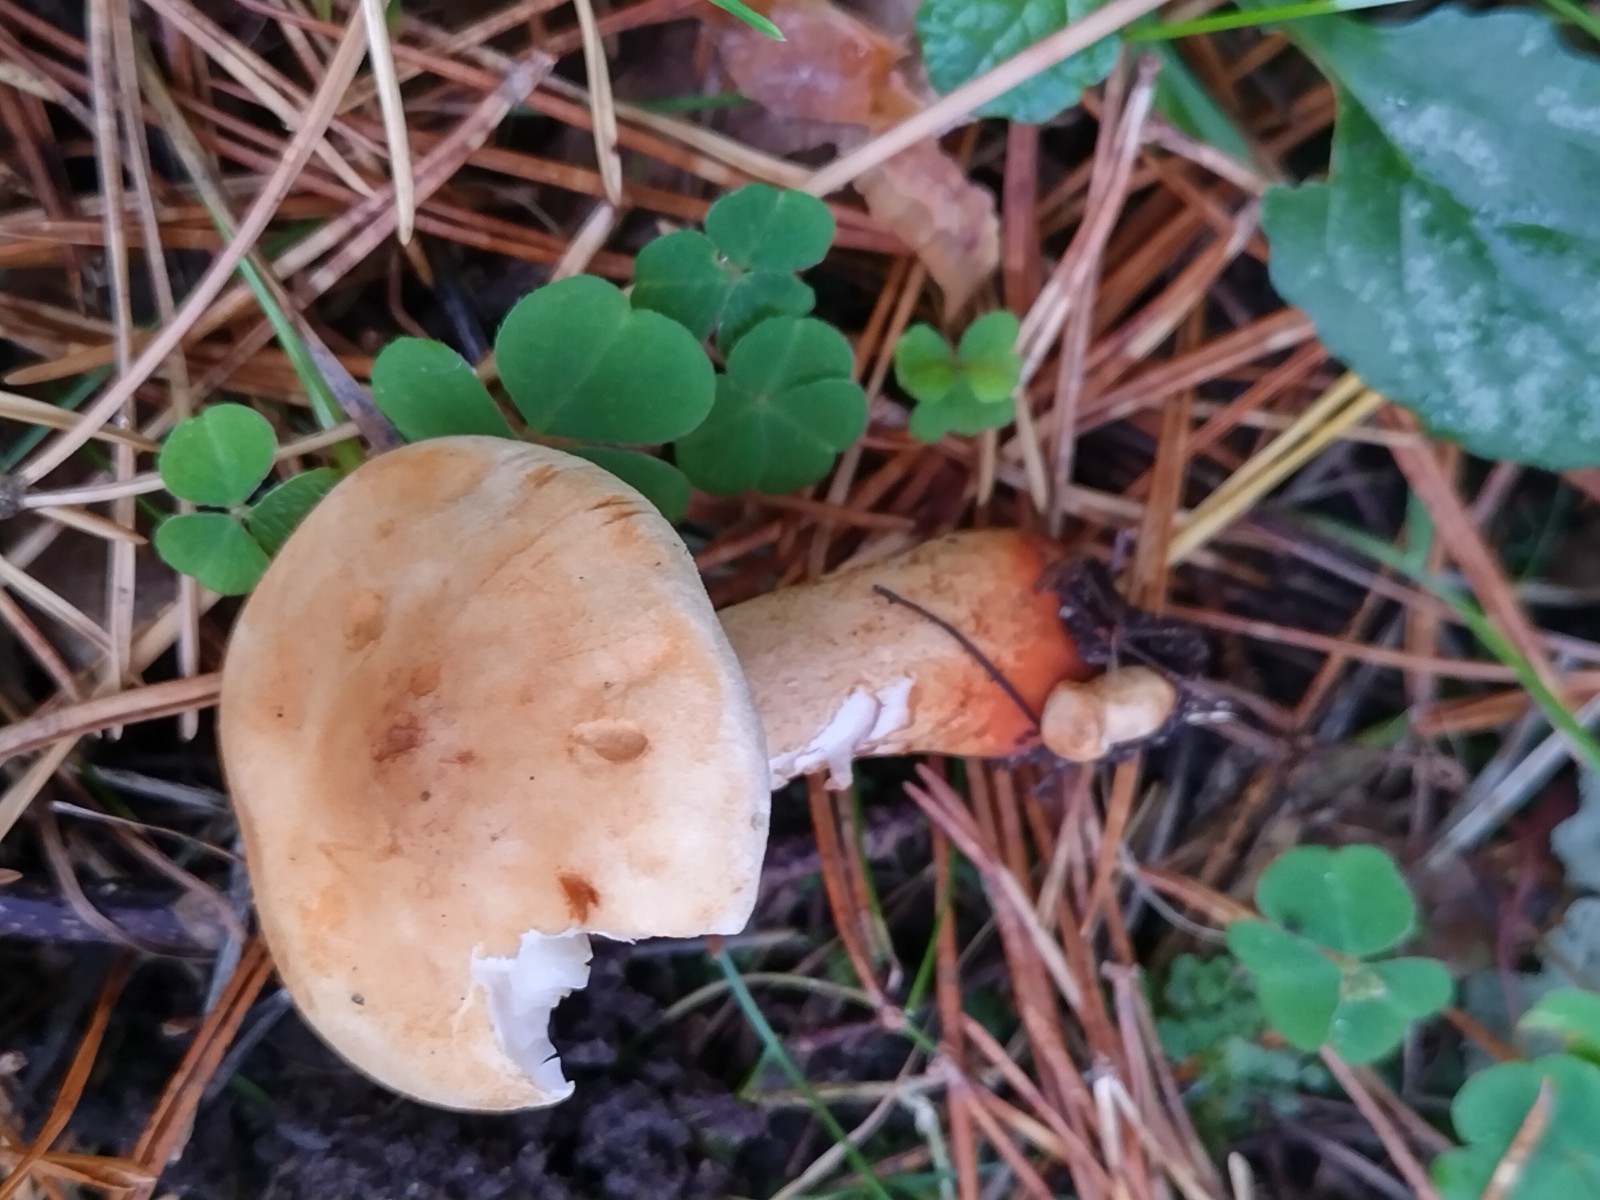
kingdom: Fungi
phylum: Basidiomycota
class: Agaricomycetes
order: Agaricales
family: Tricholomataceae
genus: Tricholoma
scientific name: Tricholoma psammopus
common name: grynstokket ridderhat
